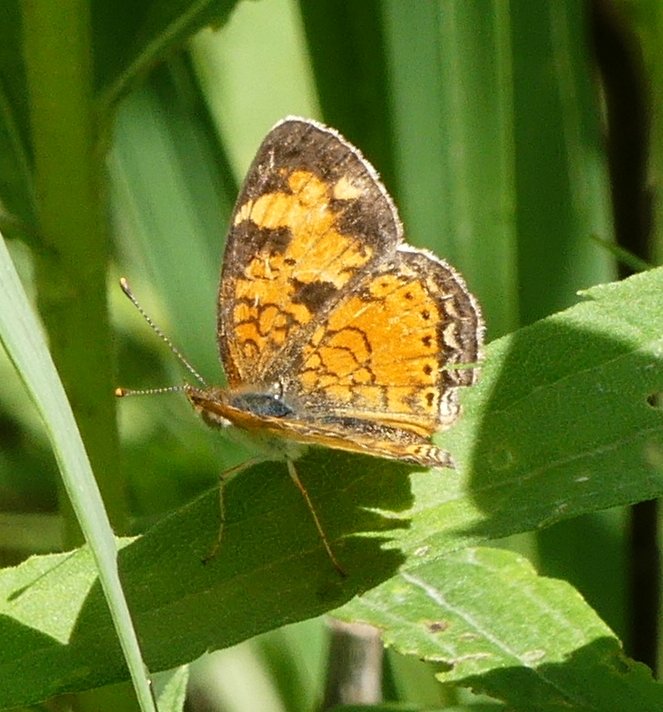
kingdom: Animalia
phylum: Arthropoda
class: Insecta
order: Lepidoptera
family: Nymphalidae
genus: Phyciodes
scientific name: Phyciodes tharos
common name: Northern Crescent
